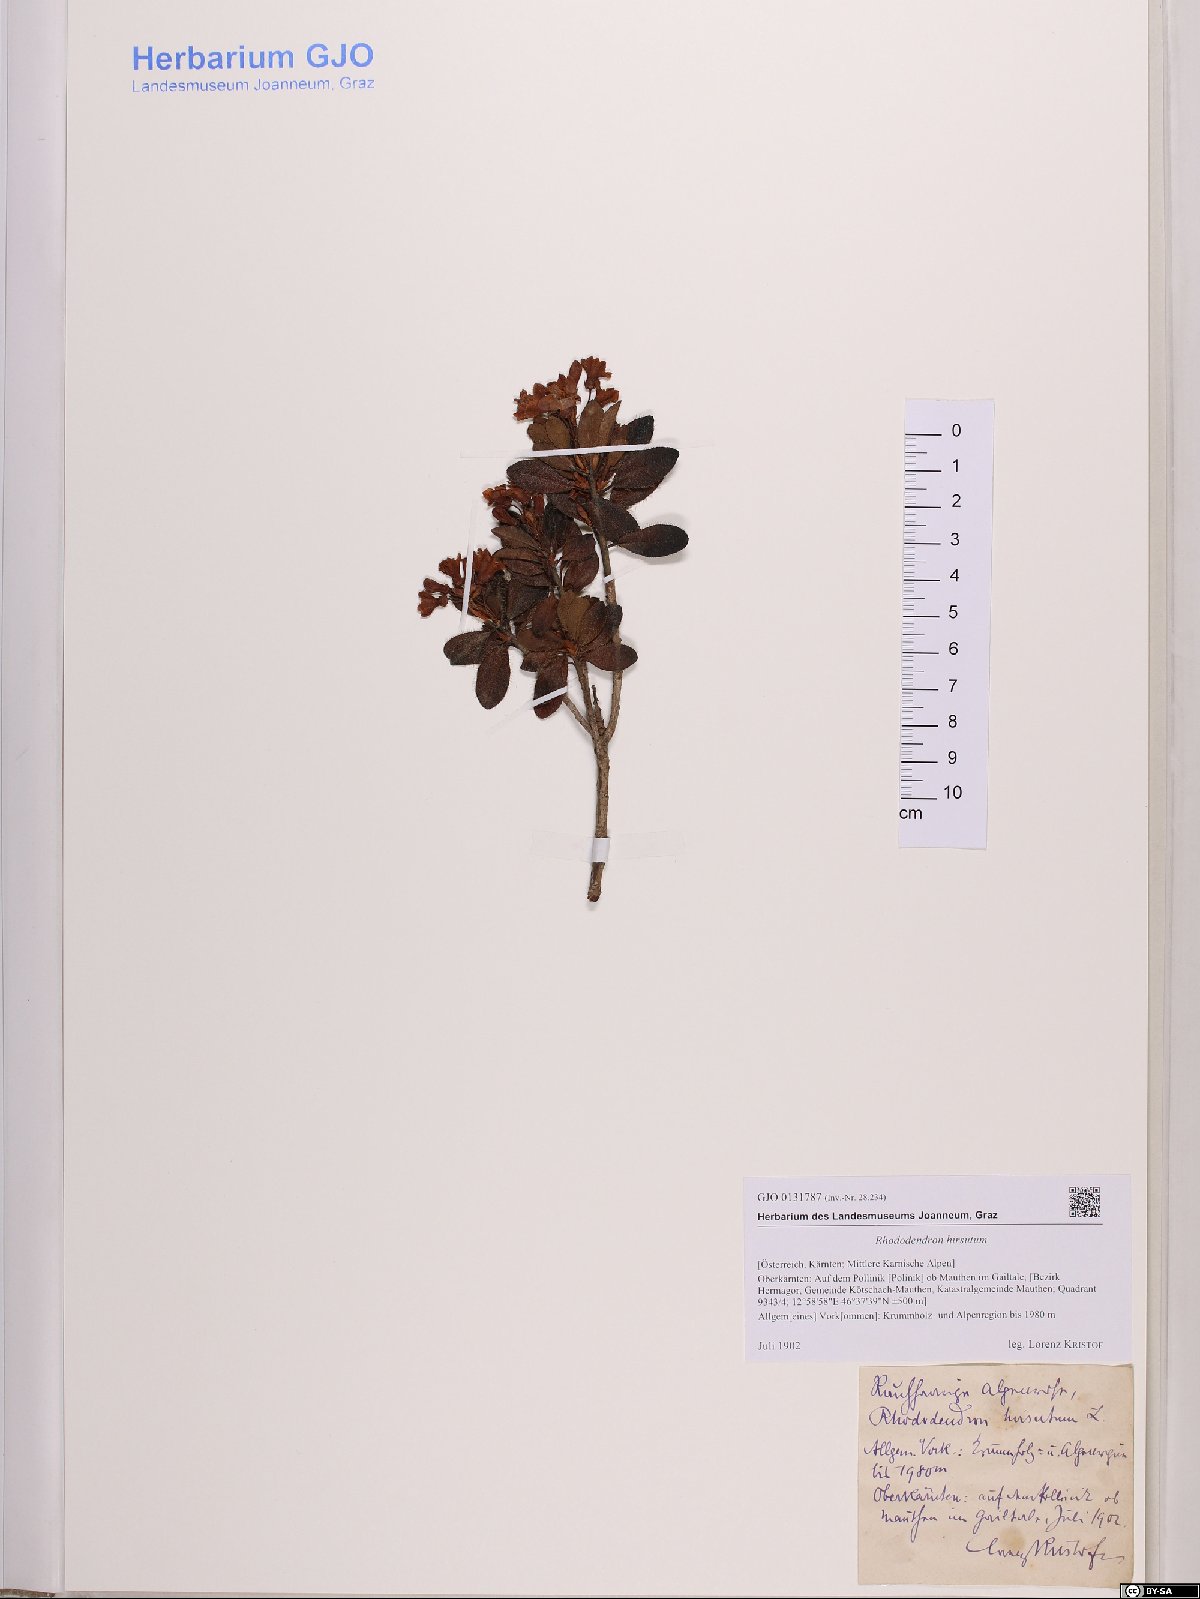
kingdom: Plantae
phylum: Tracheophyta
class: Magnoliopsida
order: Ericales
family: Ericaceae
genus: Rhododendron
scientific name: Rhododendron hirsutum
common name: Hairy alpenrose
